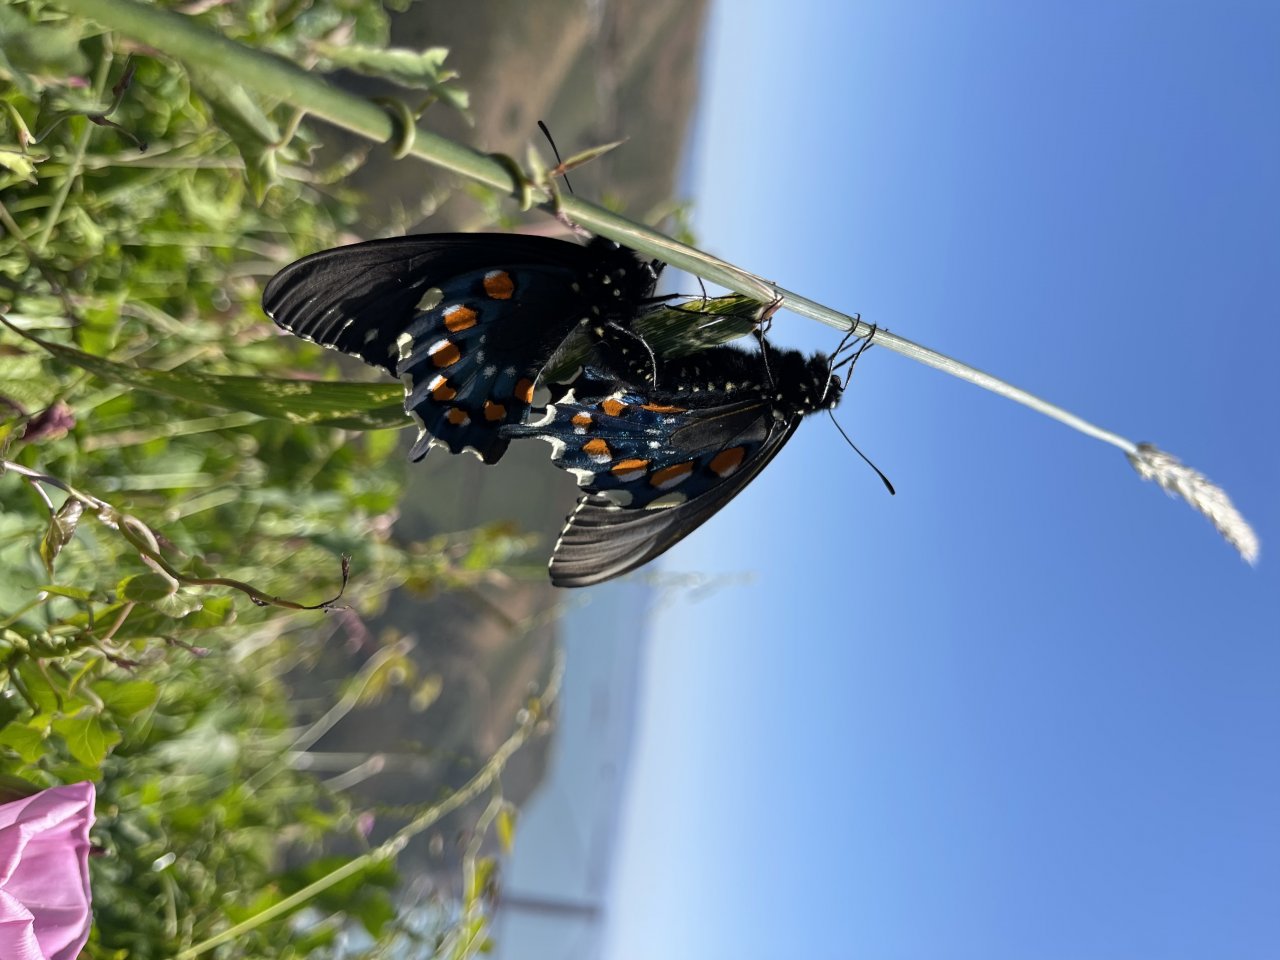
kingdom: Animalia
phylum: Arthropoda
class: Insecta
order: Lepidoptera
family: Papilionidae
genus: Battus
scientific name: Battus philenor
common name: Pipevine Swallowtail
